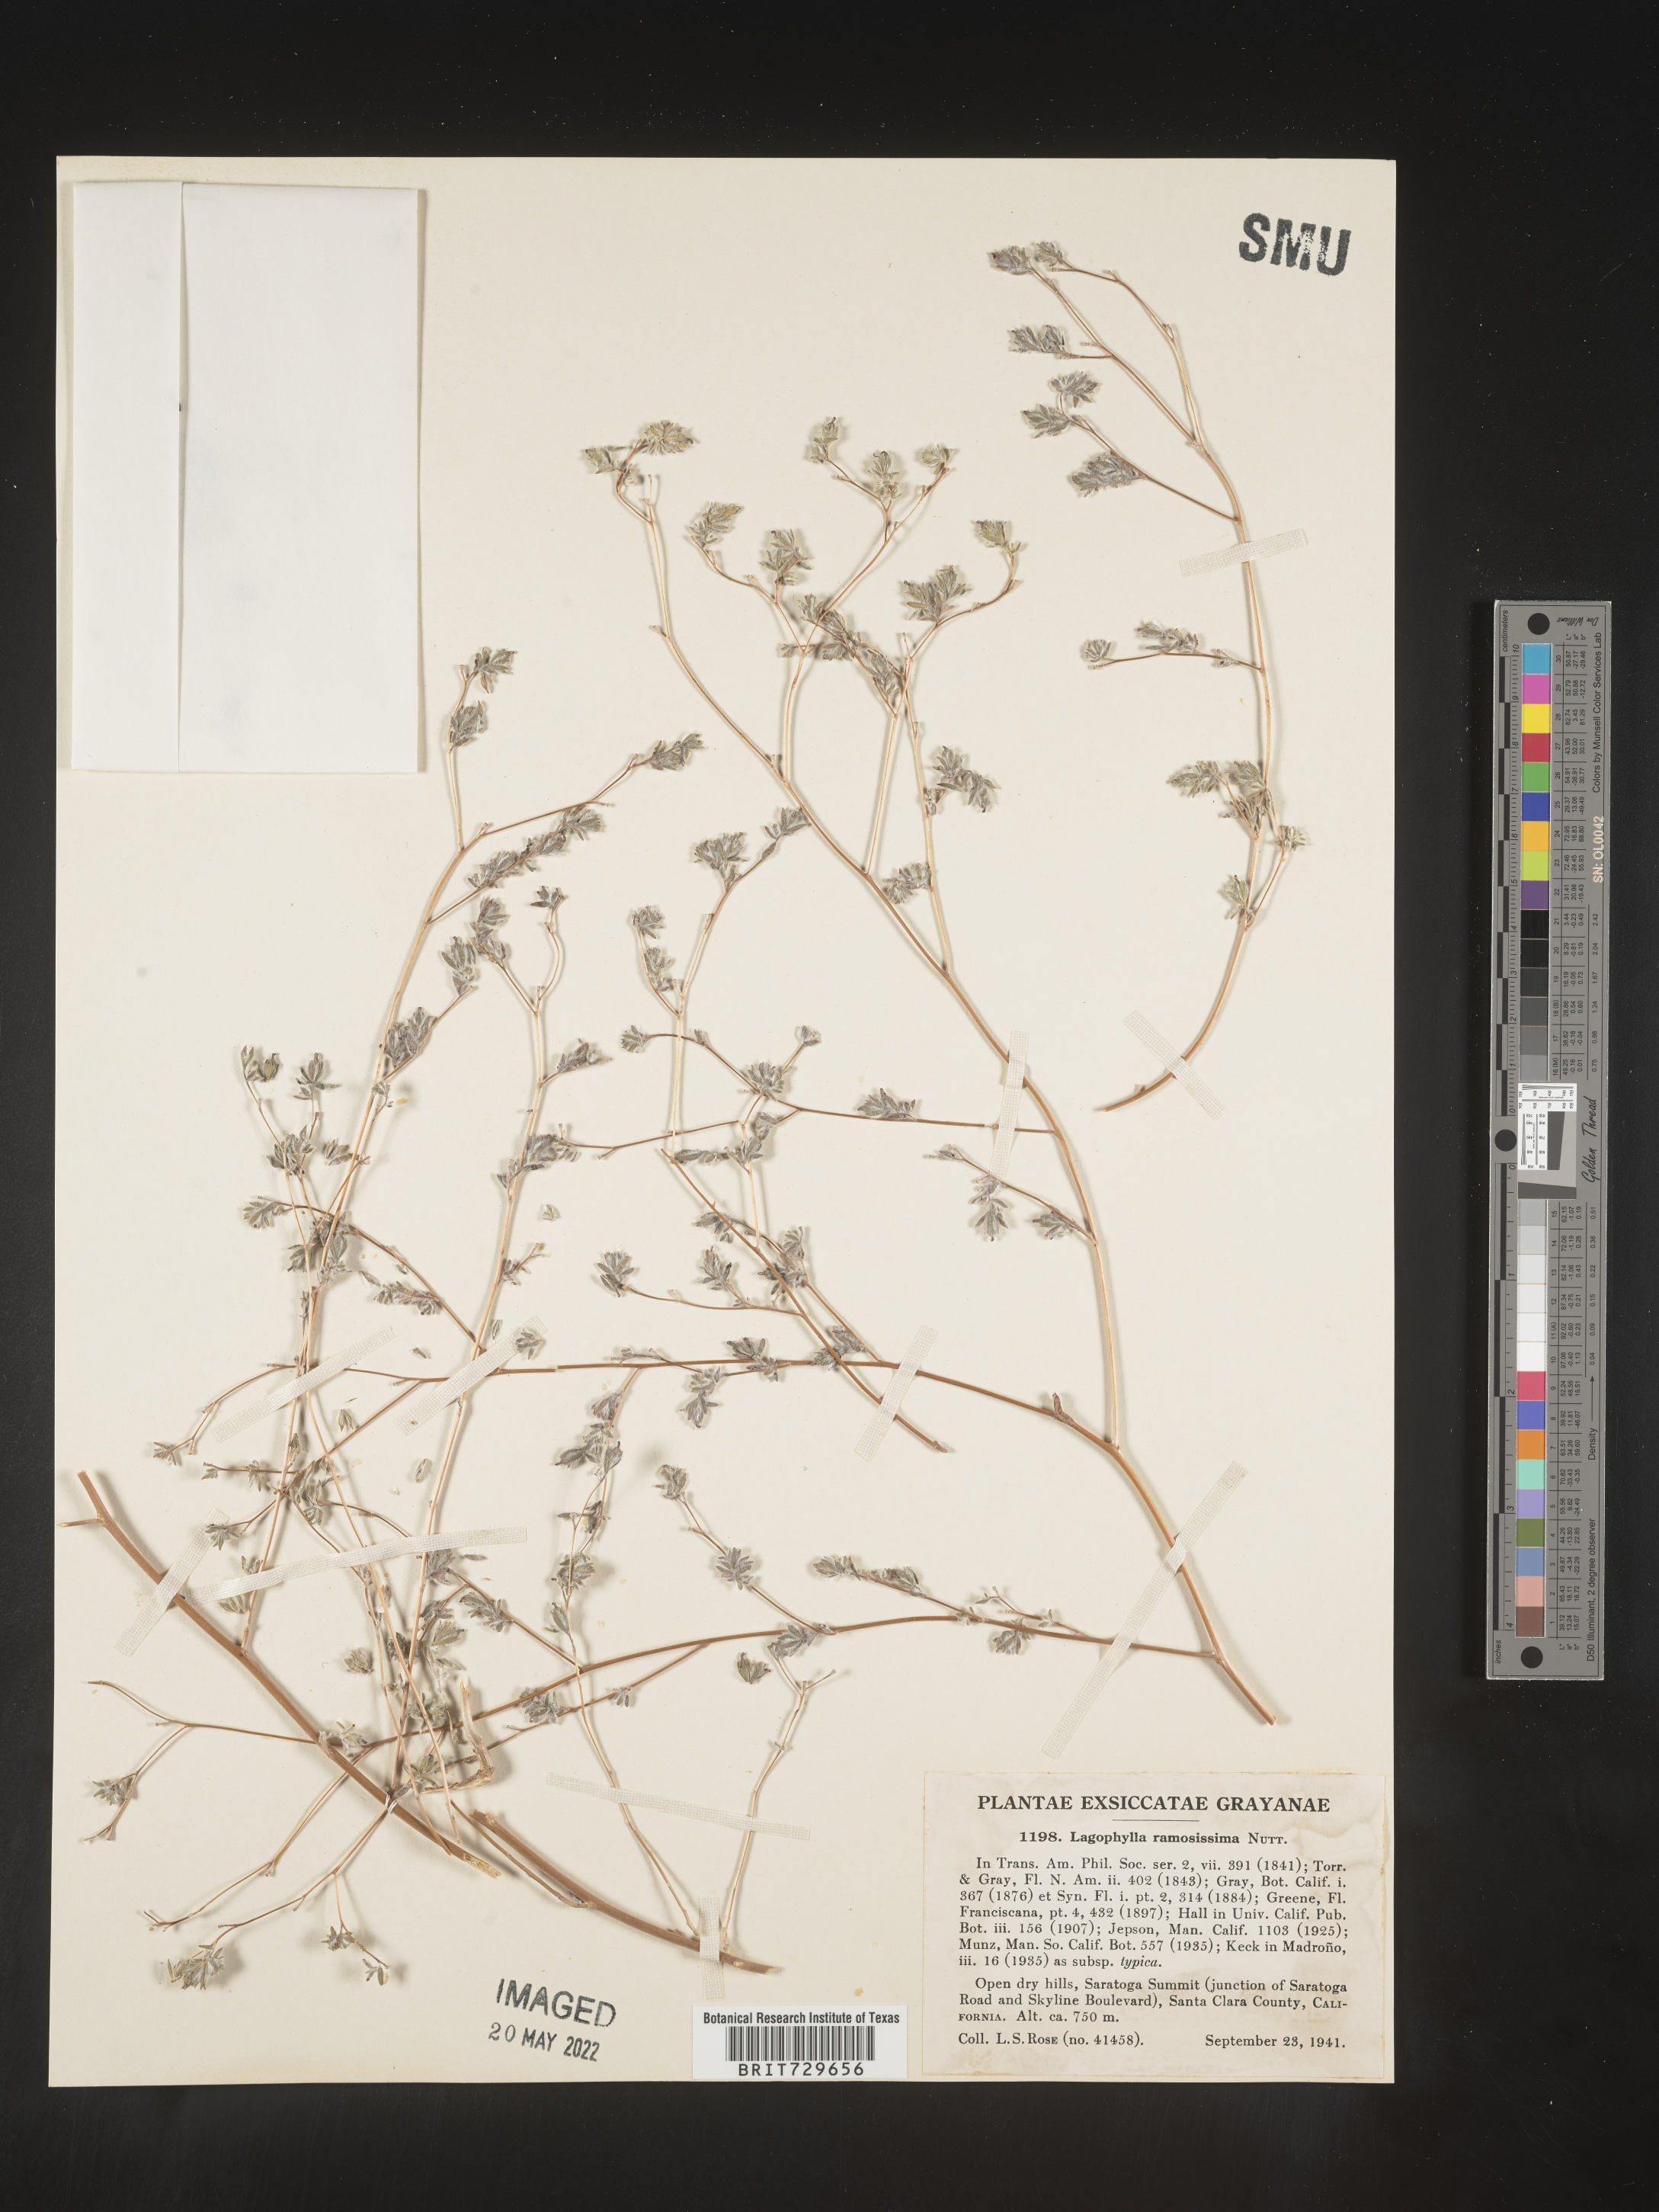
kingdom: Plantae
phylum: Tracheophyta
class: Magnoliopsida
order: Asterales
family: Asteraceae
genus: Lagophylla
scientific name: Lagophylla
